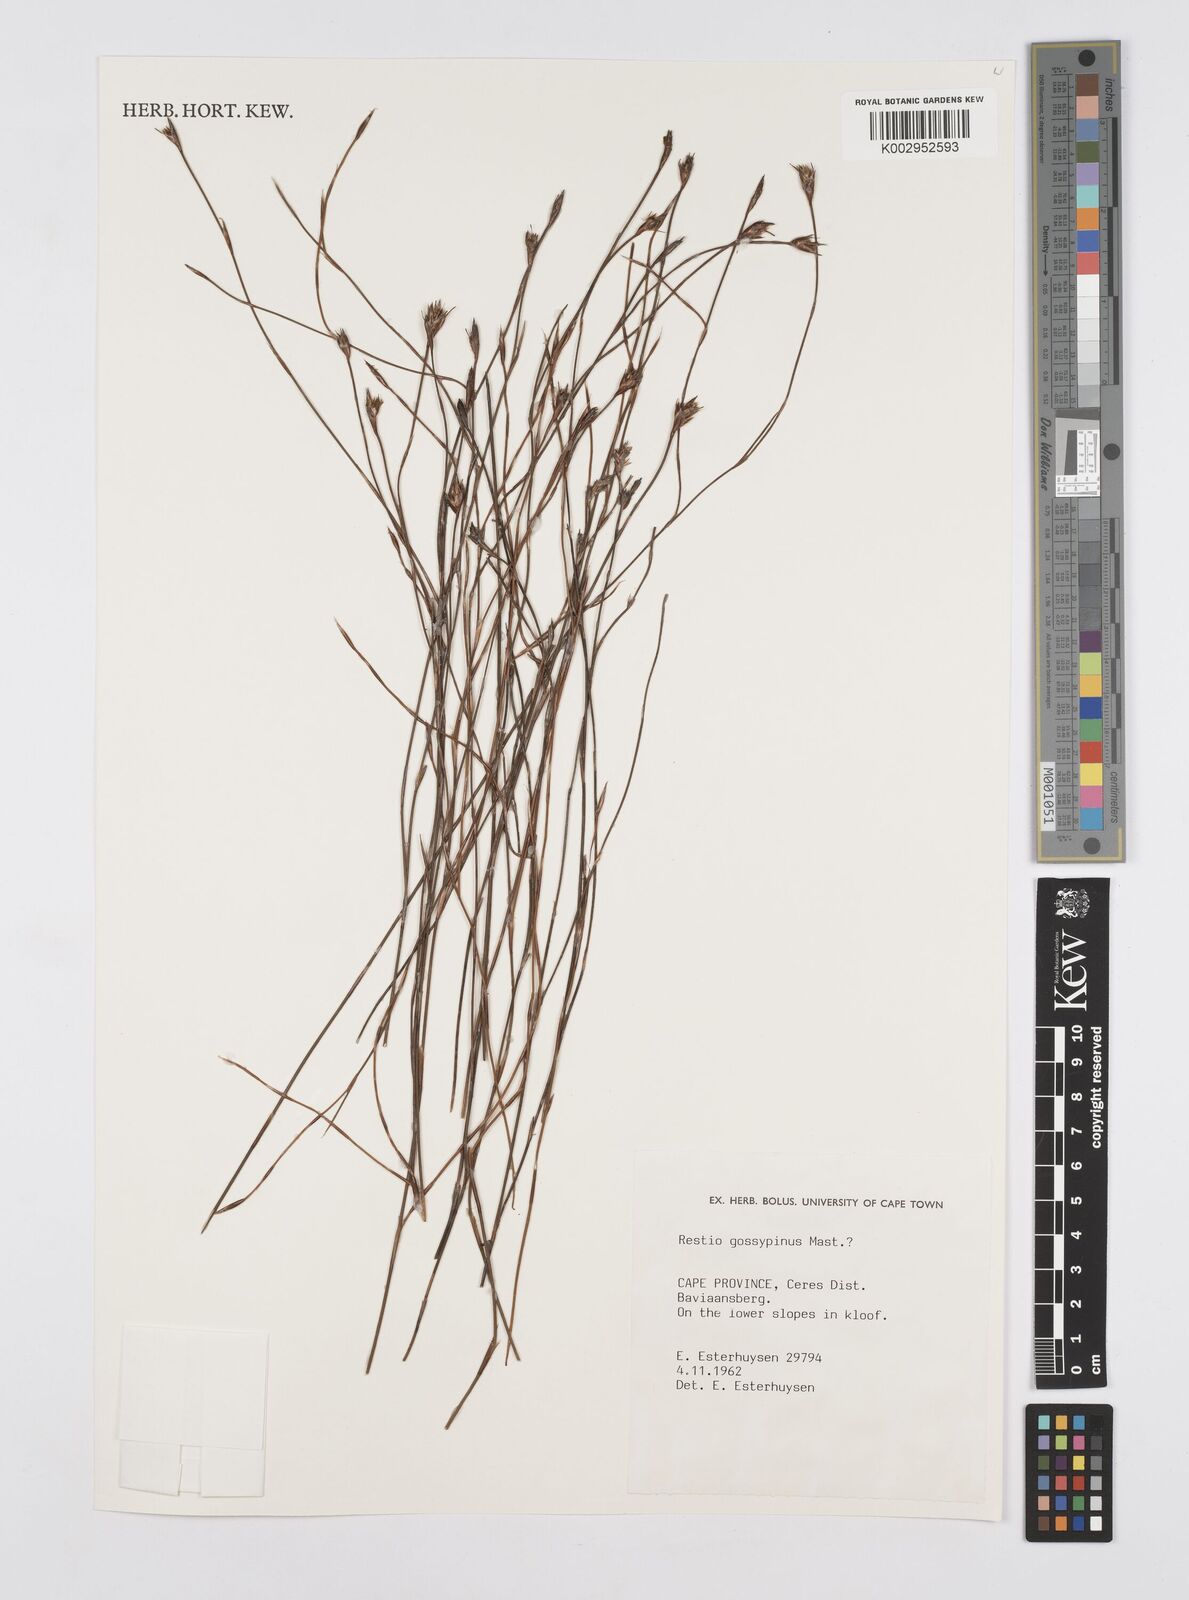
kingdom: Plantae
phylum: Tracheophyta
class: Liliopsida
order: Poales
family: Restionaceae
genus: Restio
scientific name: Restio gossypinus
